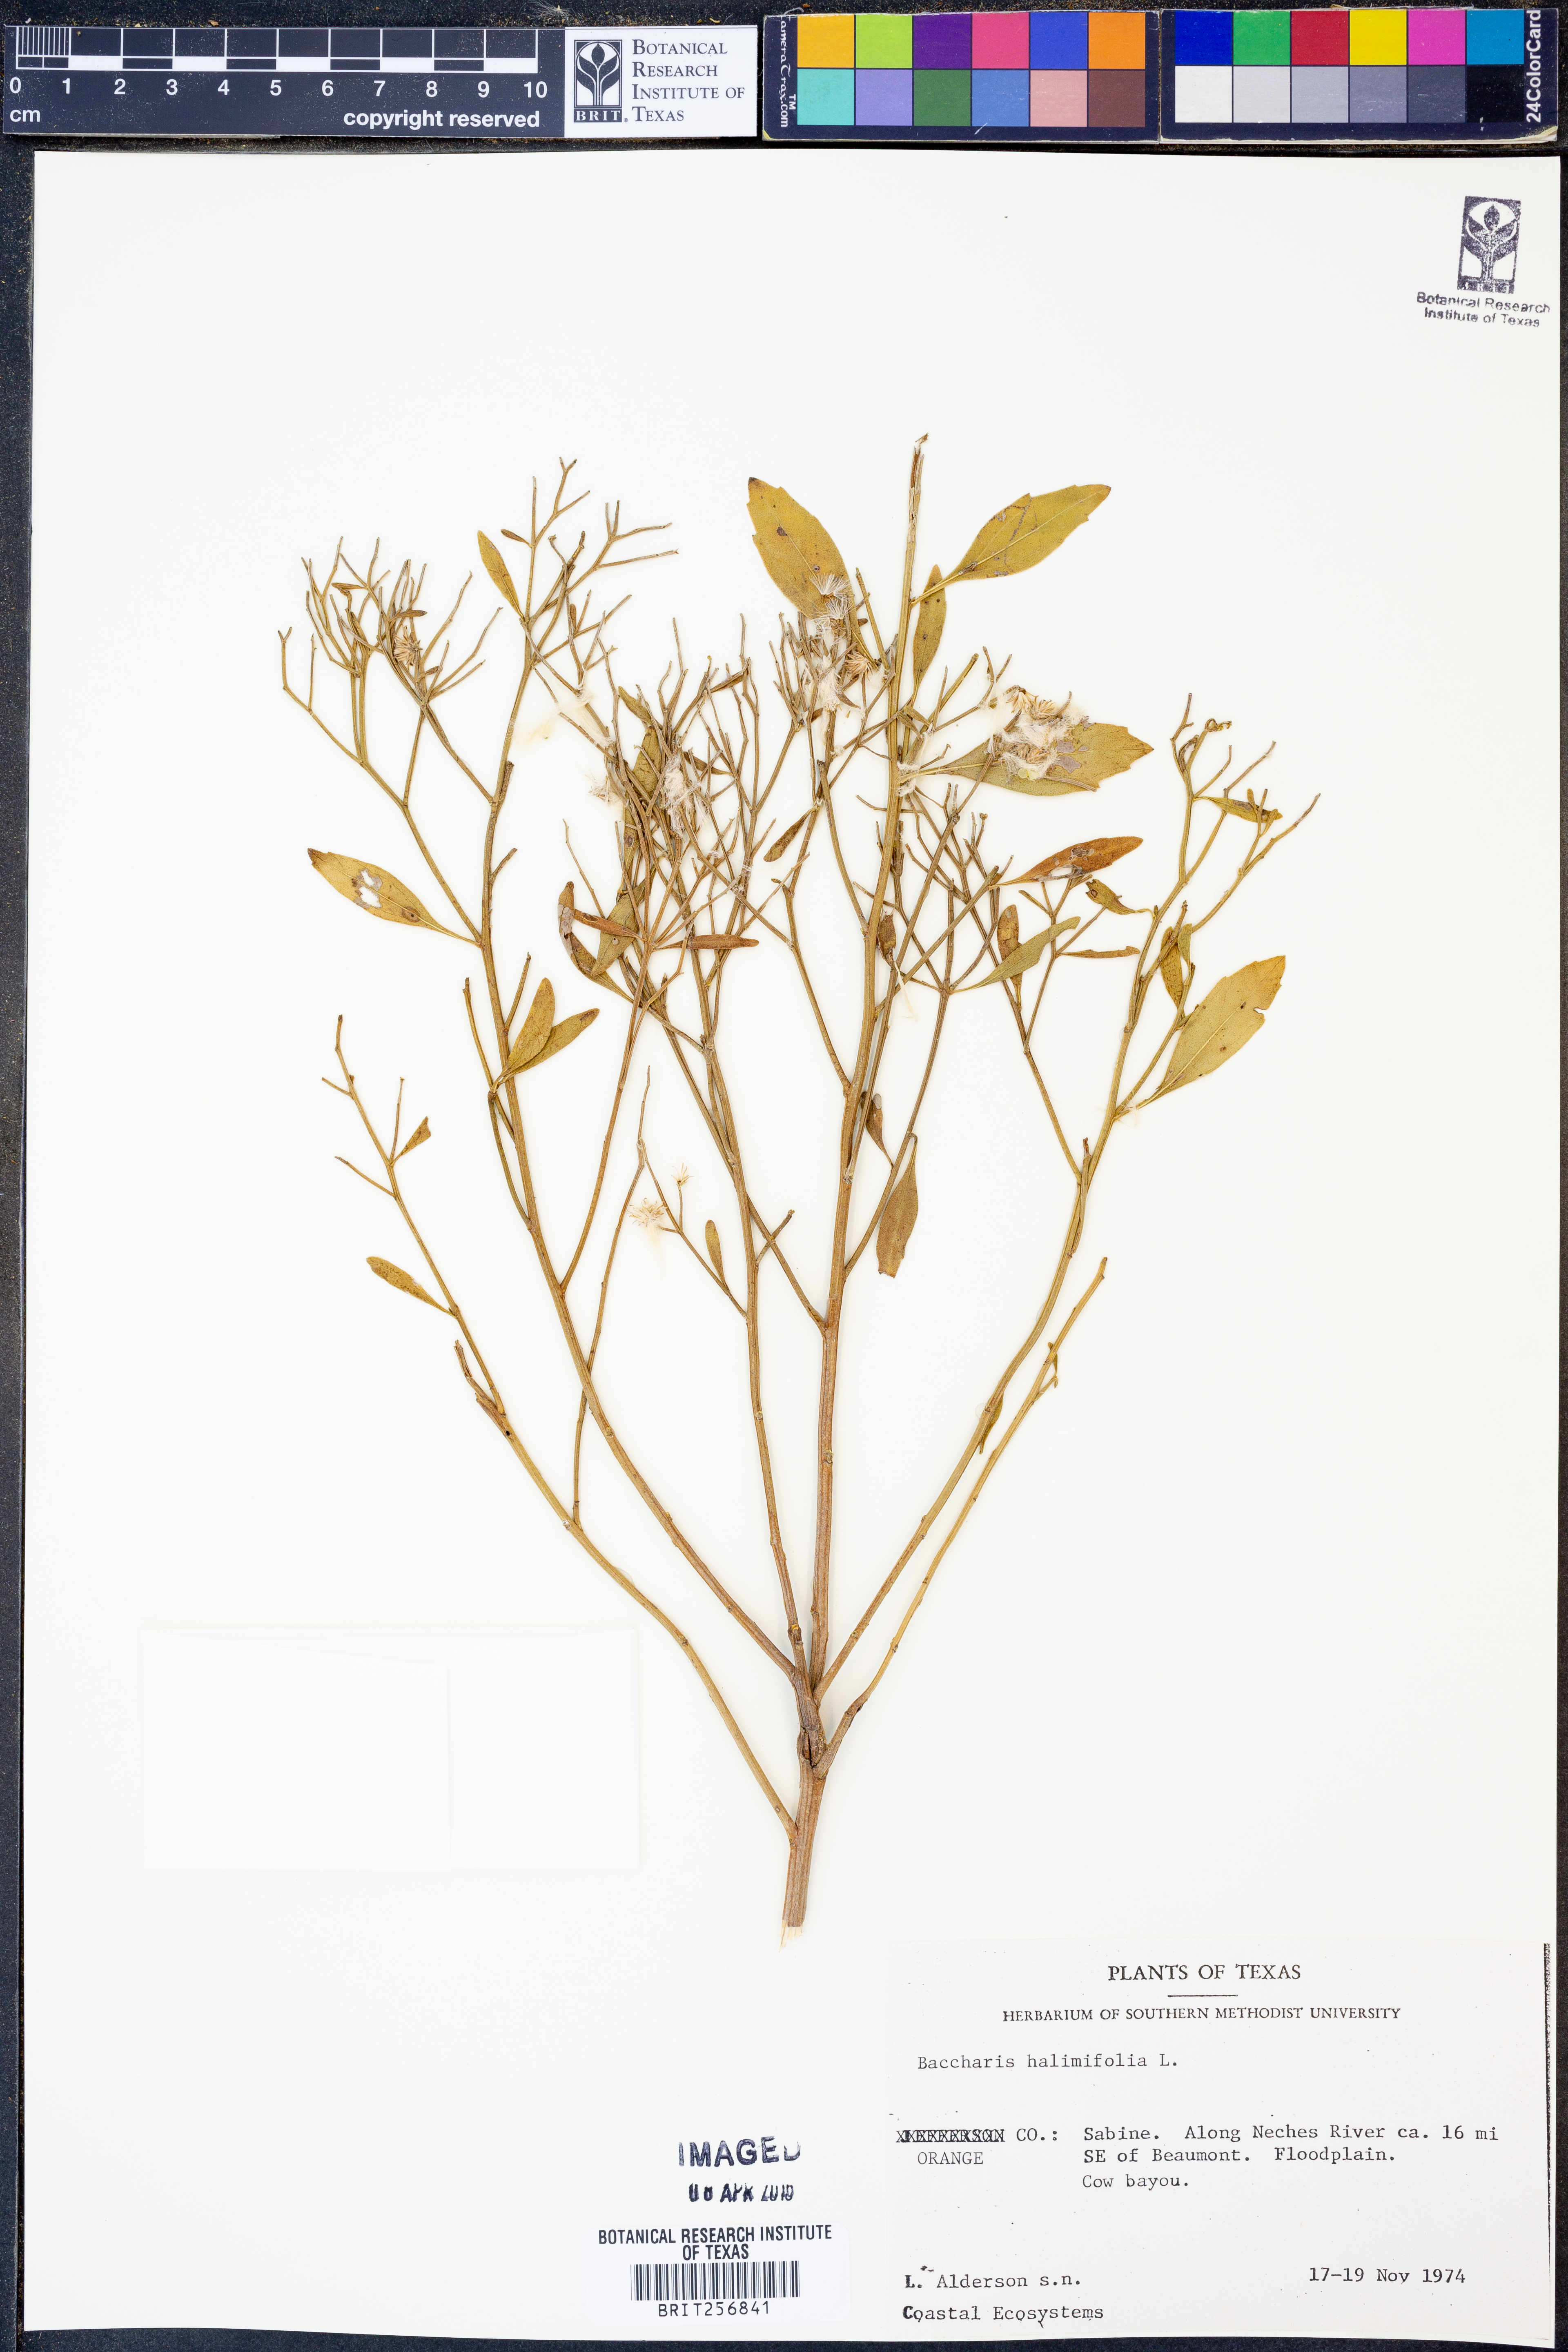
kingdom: Plantae
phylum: Tracheophyta
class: Magnoliopsida
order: Asterales
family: Asteraceae
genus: Nidorella
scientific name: Nidorella ivifolia
